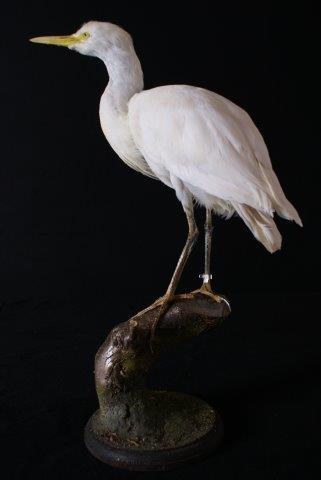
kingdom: Animalia
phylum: Chordata
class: Aves
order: Pelecaniformes
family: Ardeidae
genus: Bubulcus
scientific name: Bubulcus ibis
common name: Cattle egret
